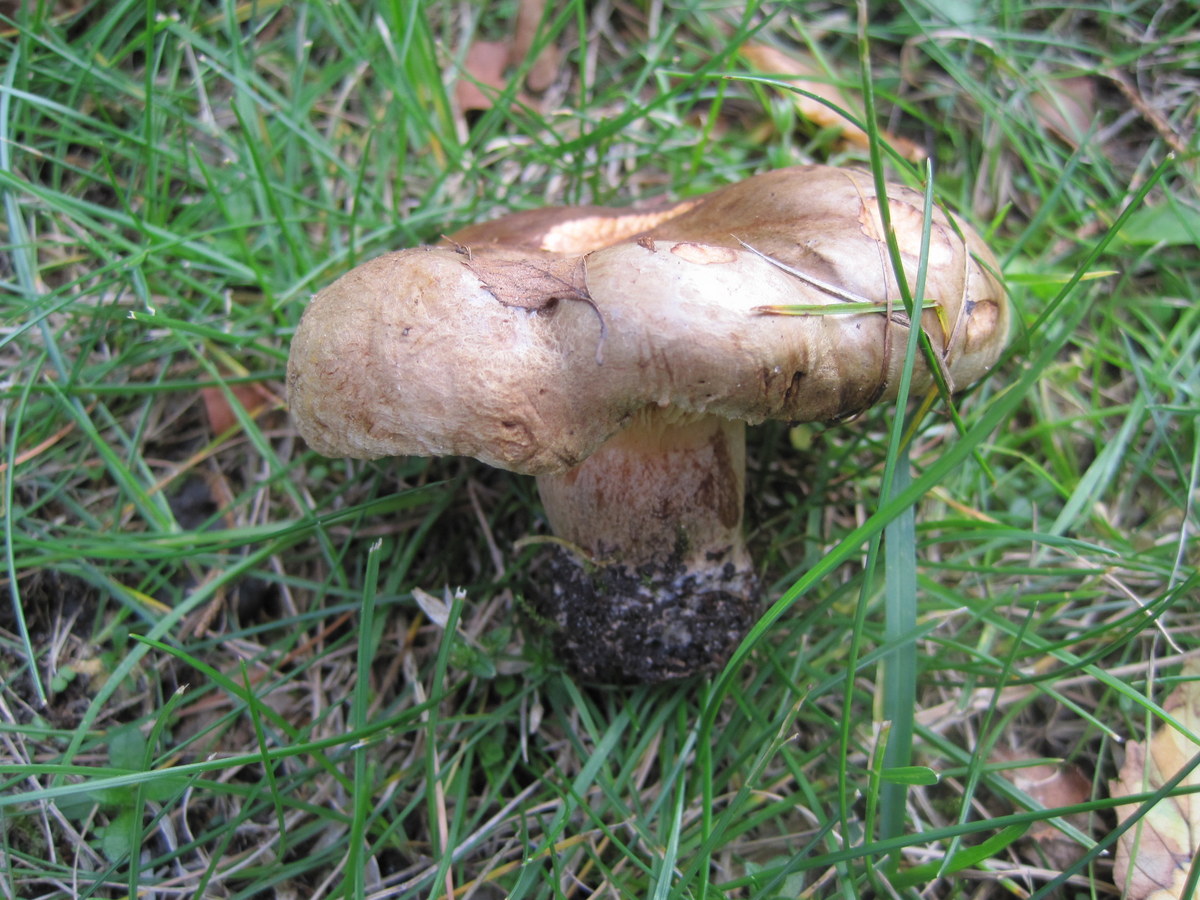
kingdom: Fungi
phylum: Basidiomycota
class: Agaricomycetes
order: Boletales
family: Paxillaceae
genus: Paxillus
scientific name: Paxillus obscurisporus
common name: mahognisporet netbladhat
